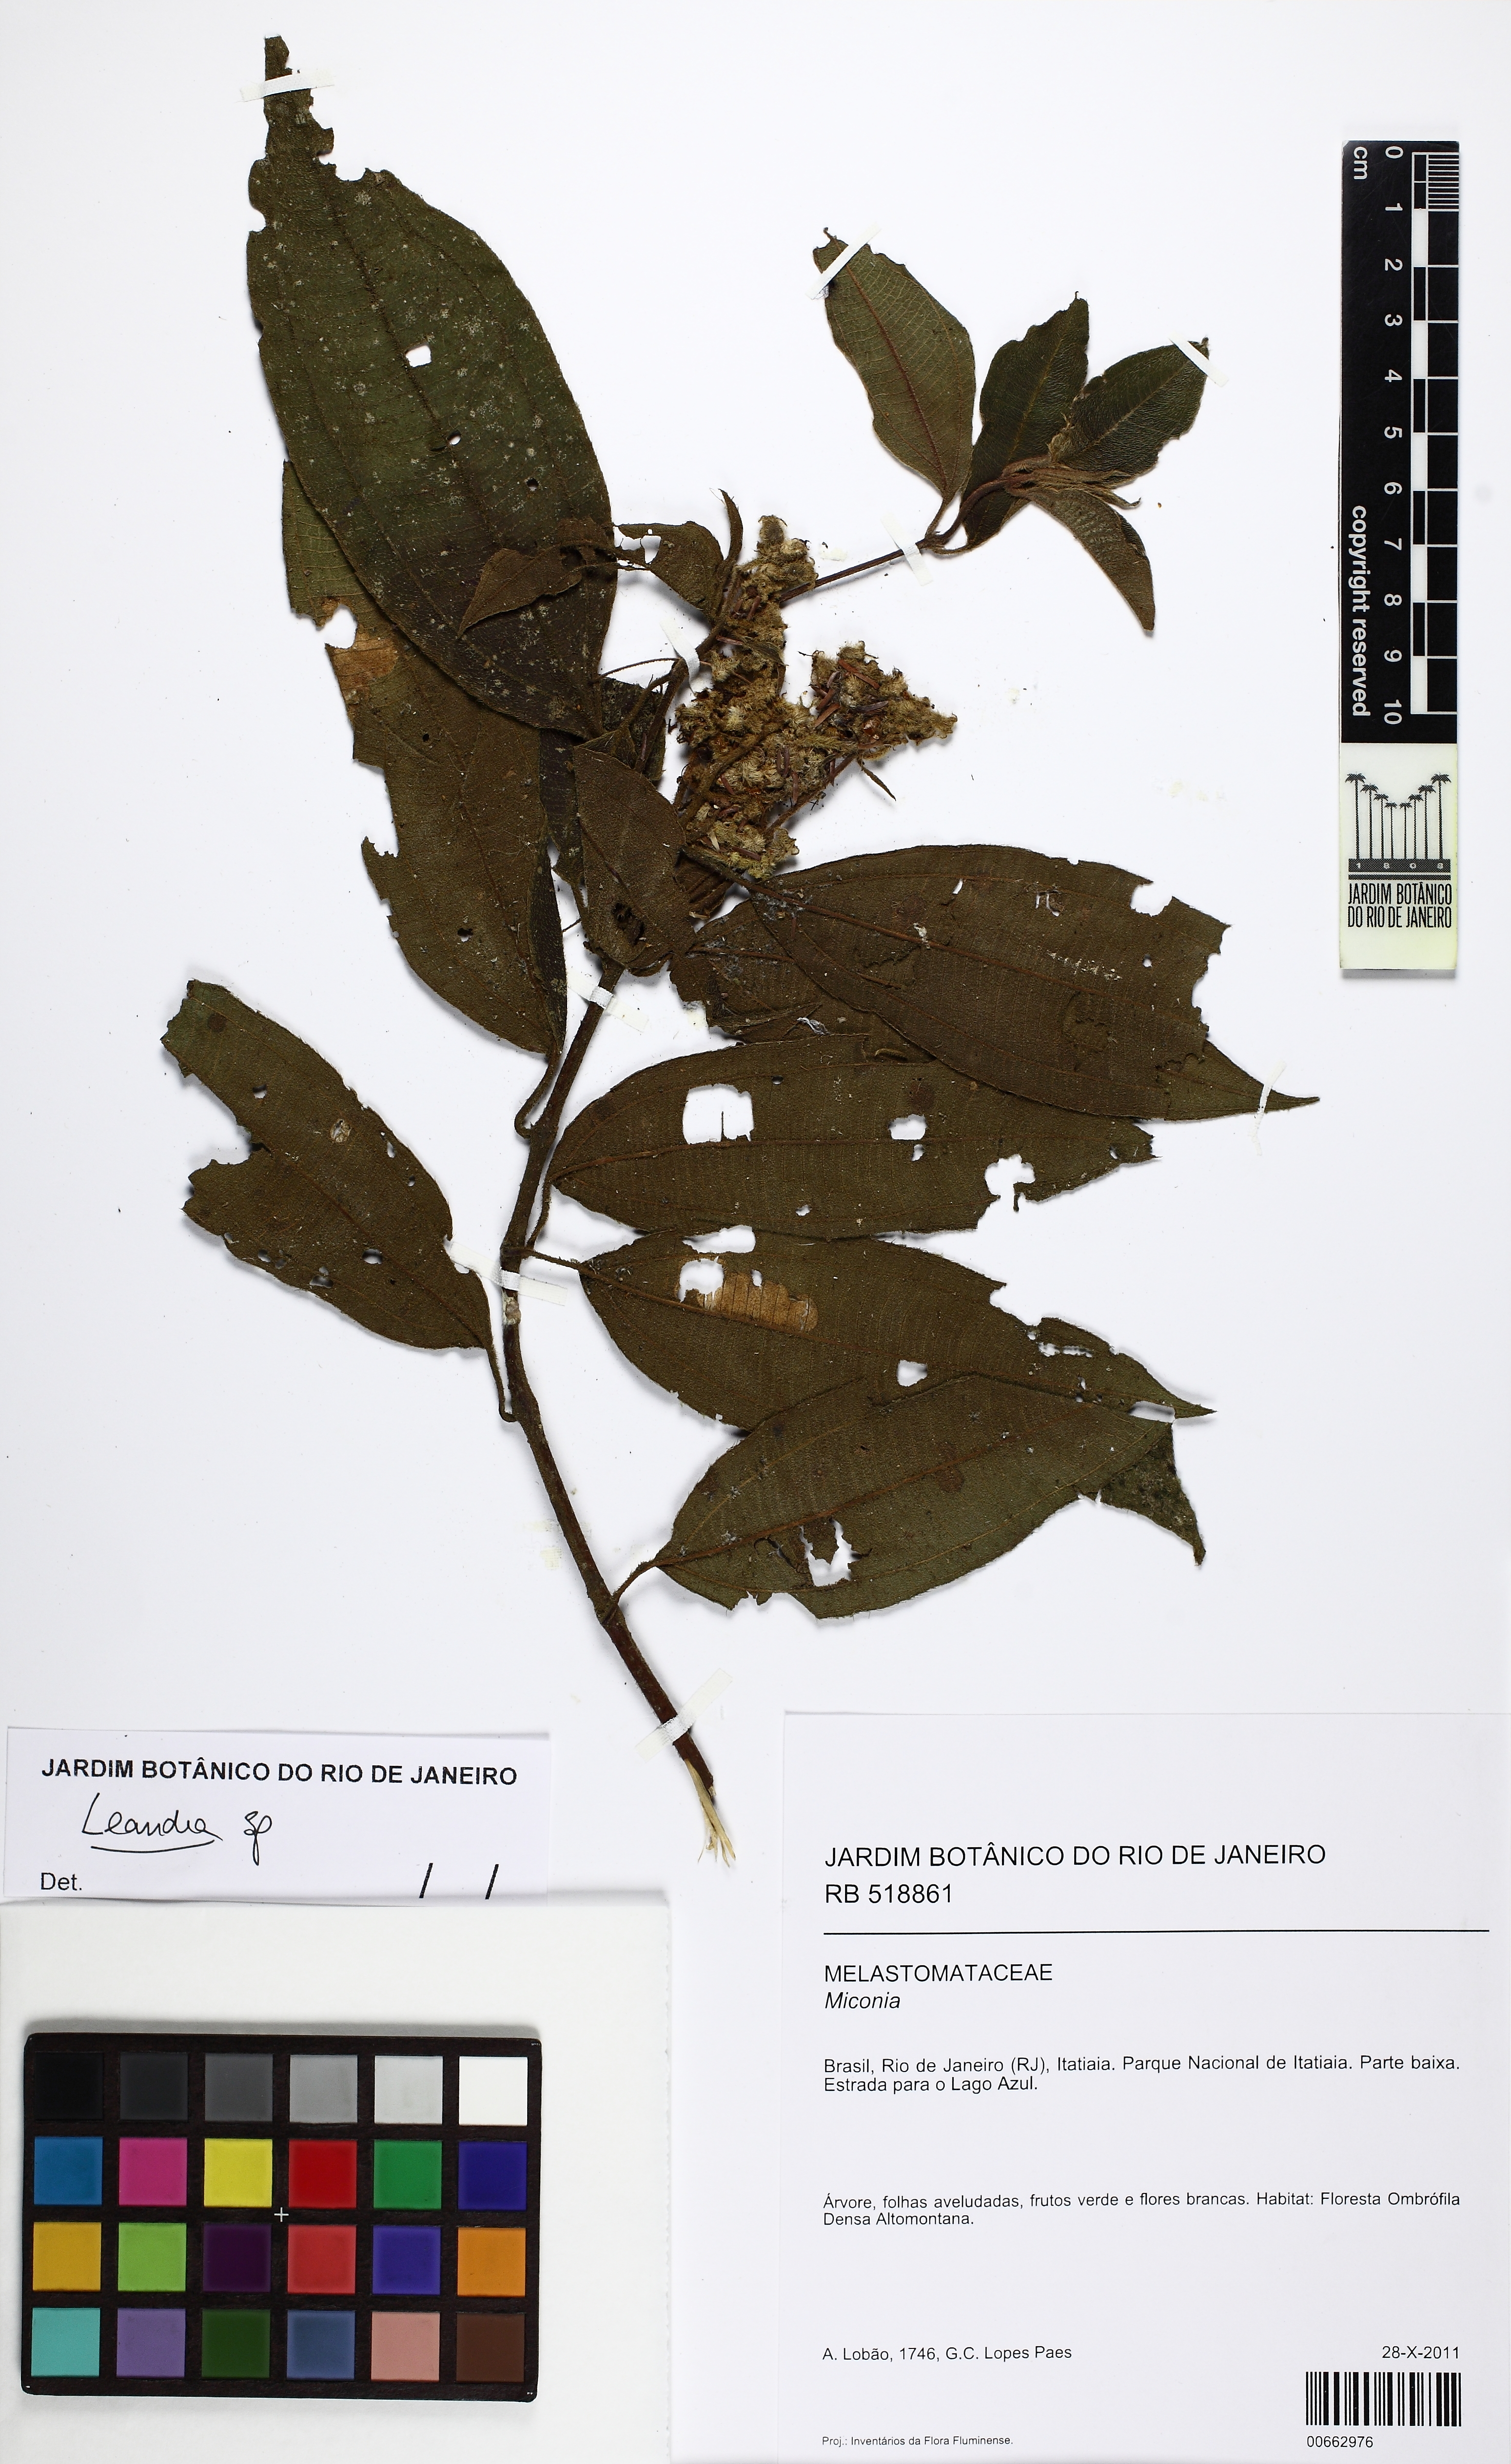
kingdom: Plantae
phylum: Tracheophyta
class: Magnoliopsida
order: Myrtales
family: Melastomataceae
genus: Miconia
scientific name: Miconia
